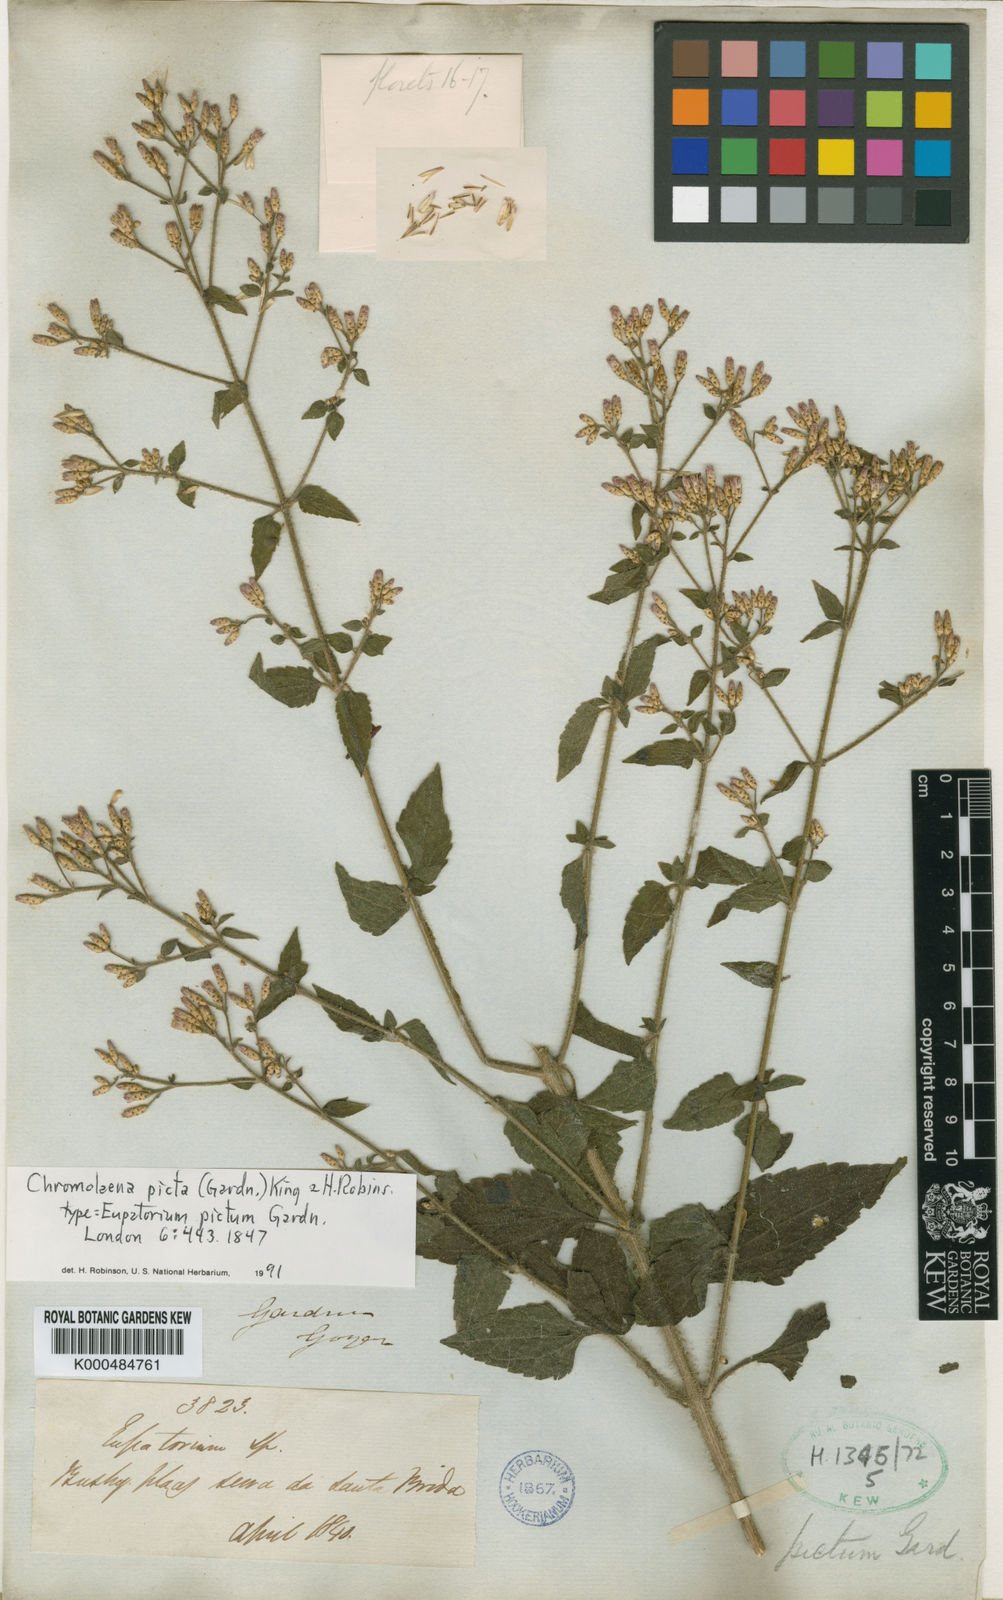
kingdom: Plantae
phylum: Tracheophyta
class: Magnoliopsida
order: Asterales
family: Asteraceae
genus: Chromolaena
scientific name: Chromolaena picta
